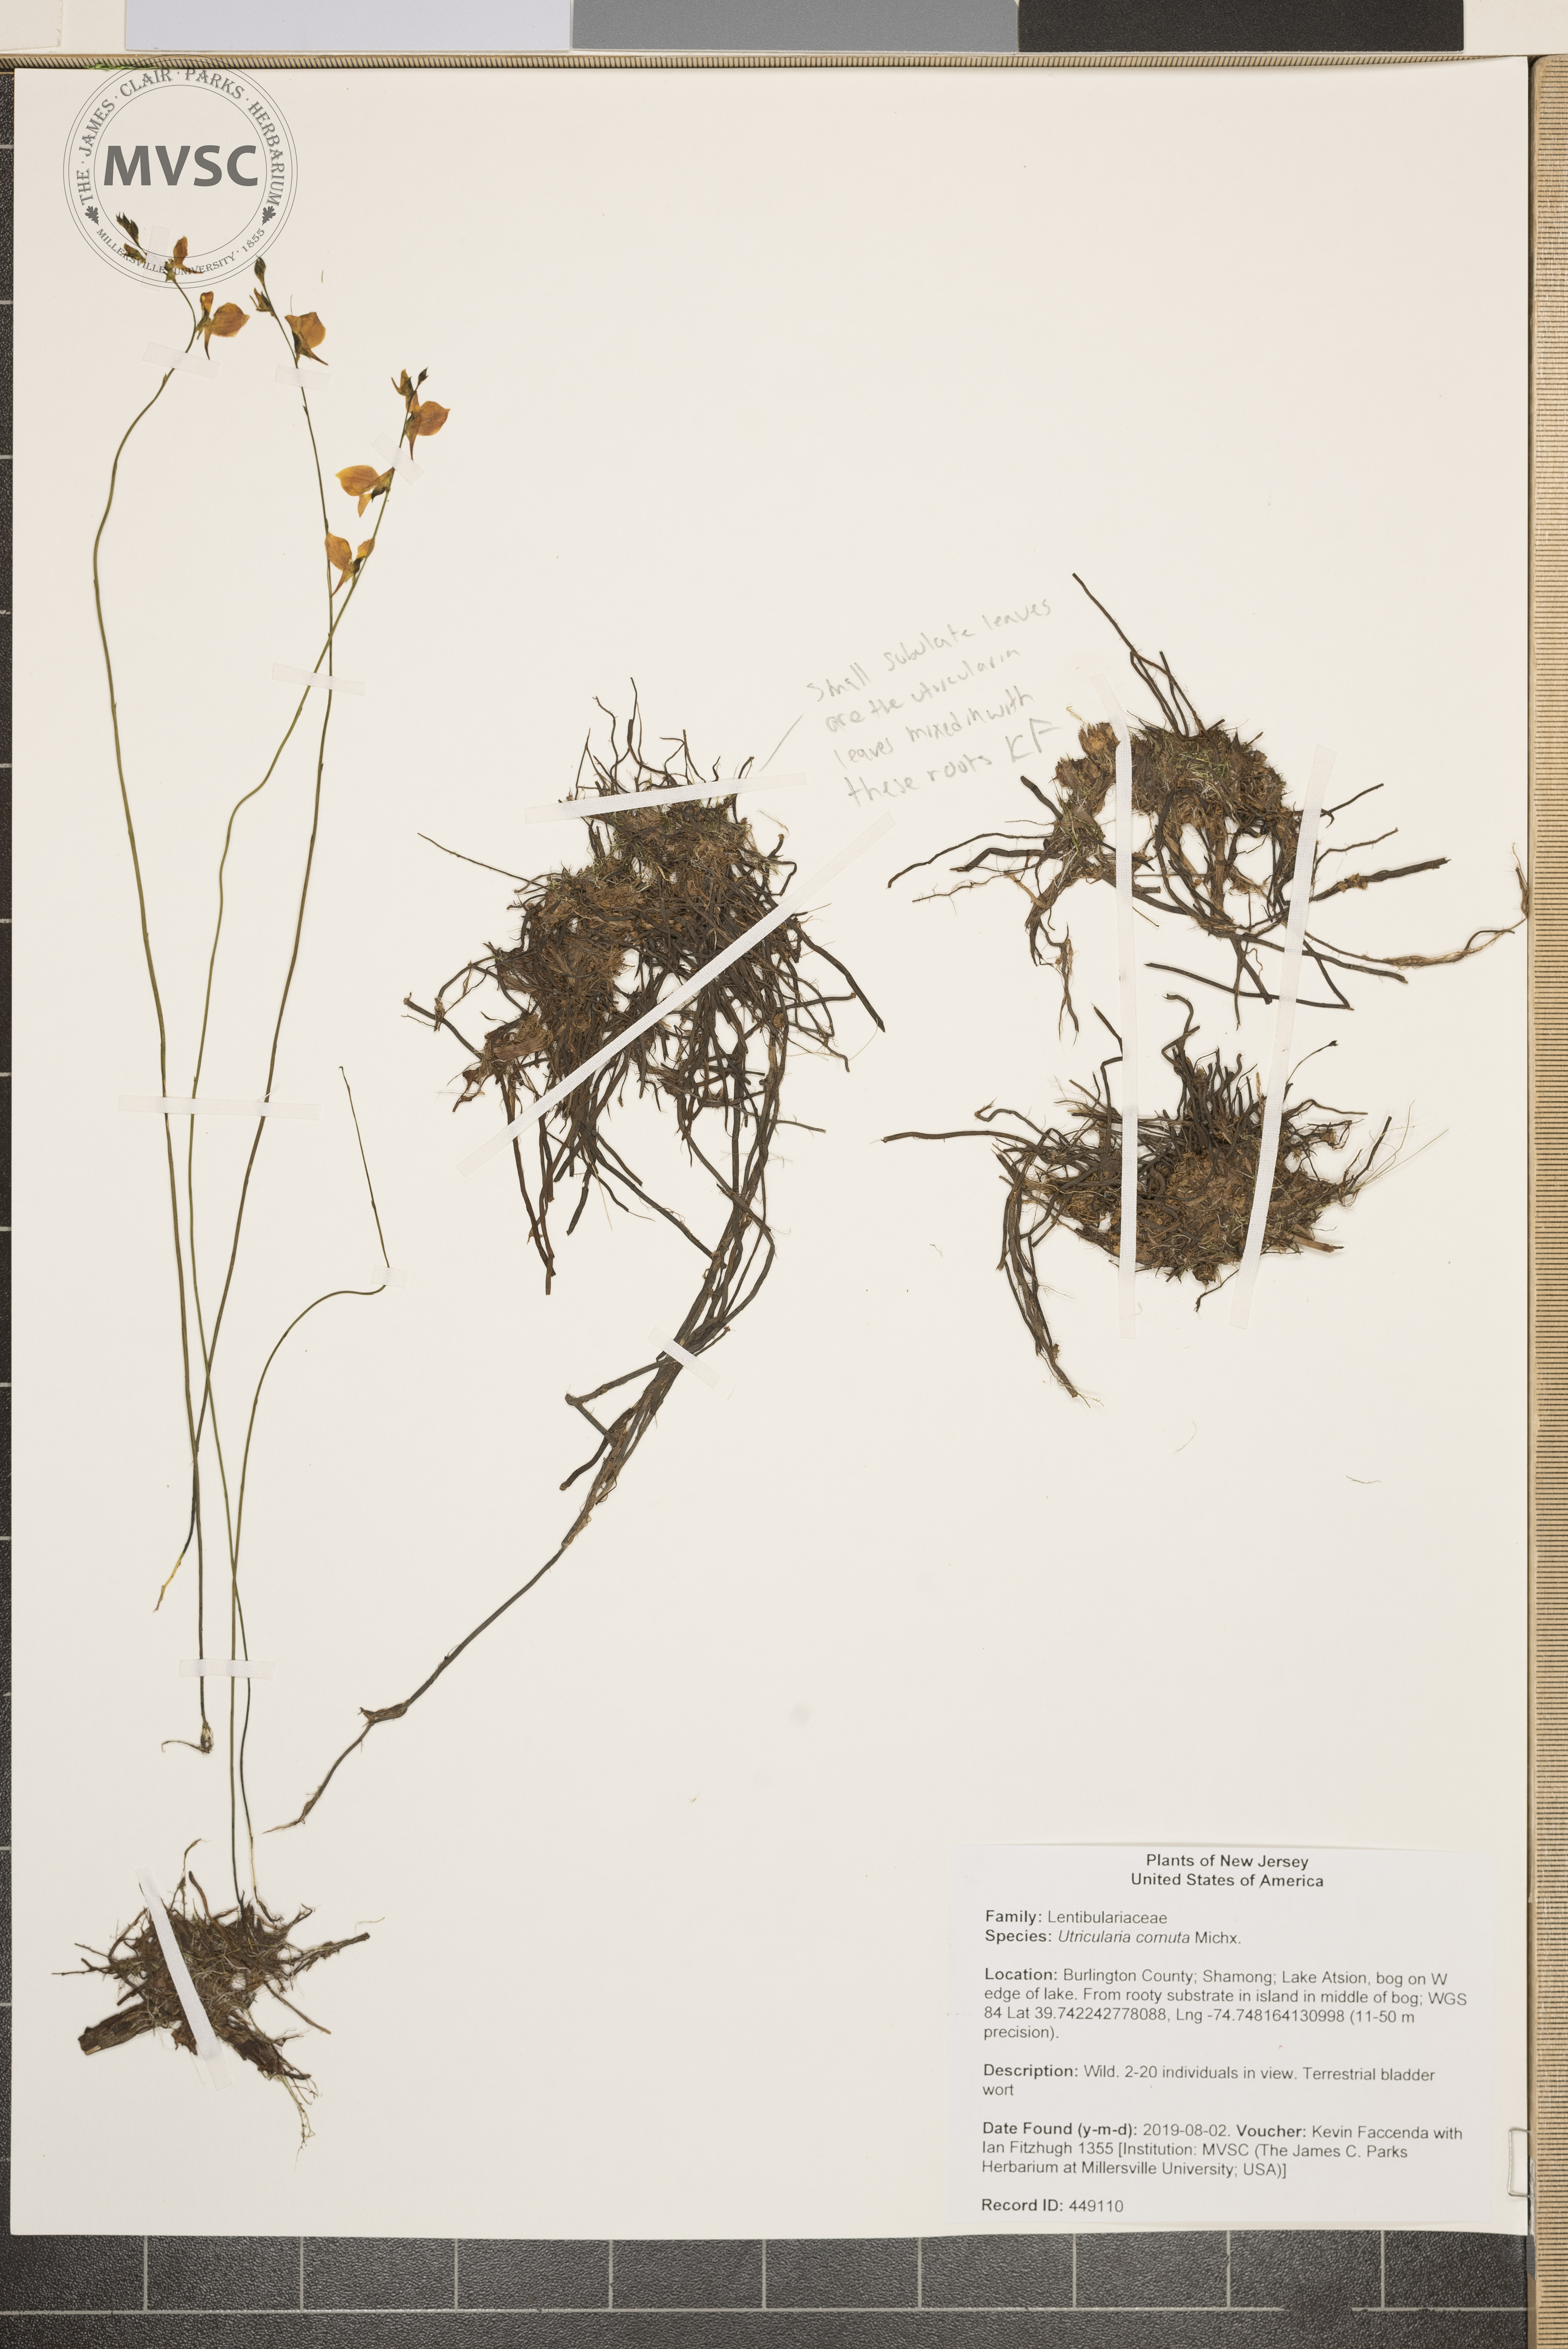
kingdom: Plantae
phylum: Tracheophyta
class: Magnoliopsida
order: Lamiales
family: Lentibulariaceae
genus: Utricularia
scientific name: Utricularia cornuta
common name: Horned bladderwort
